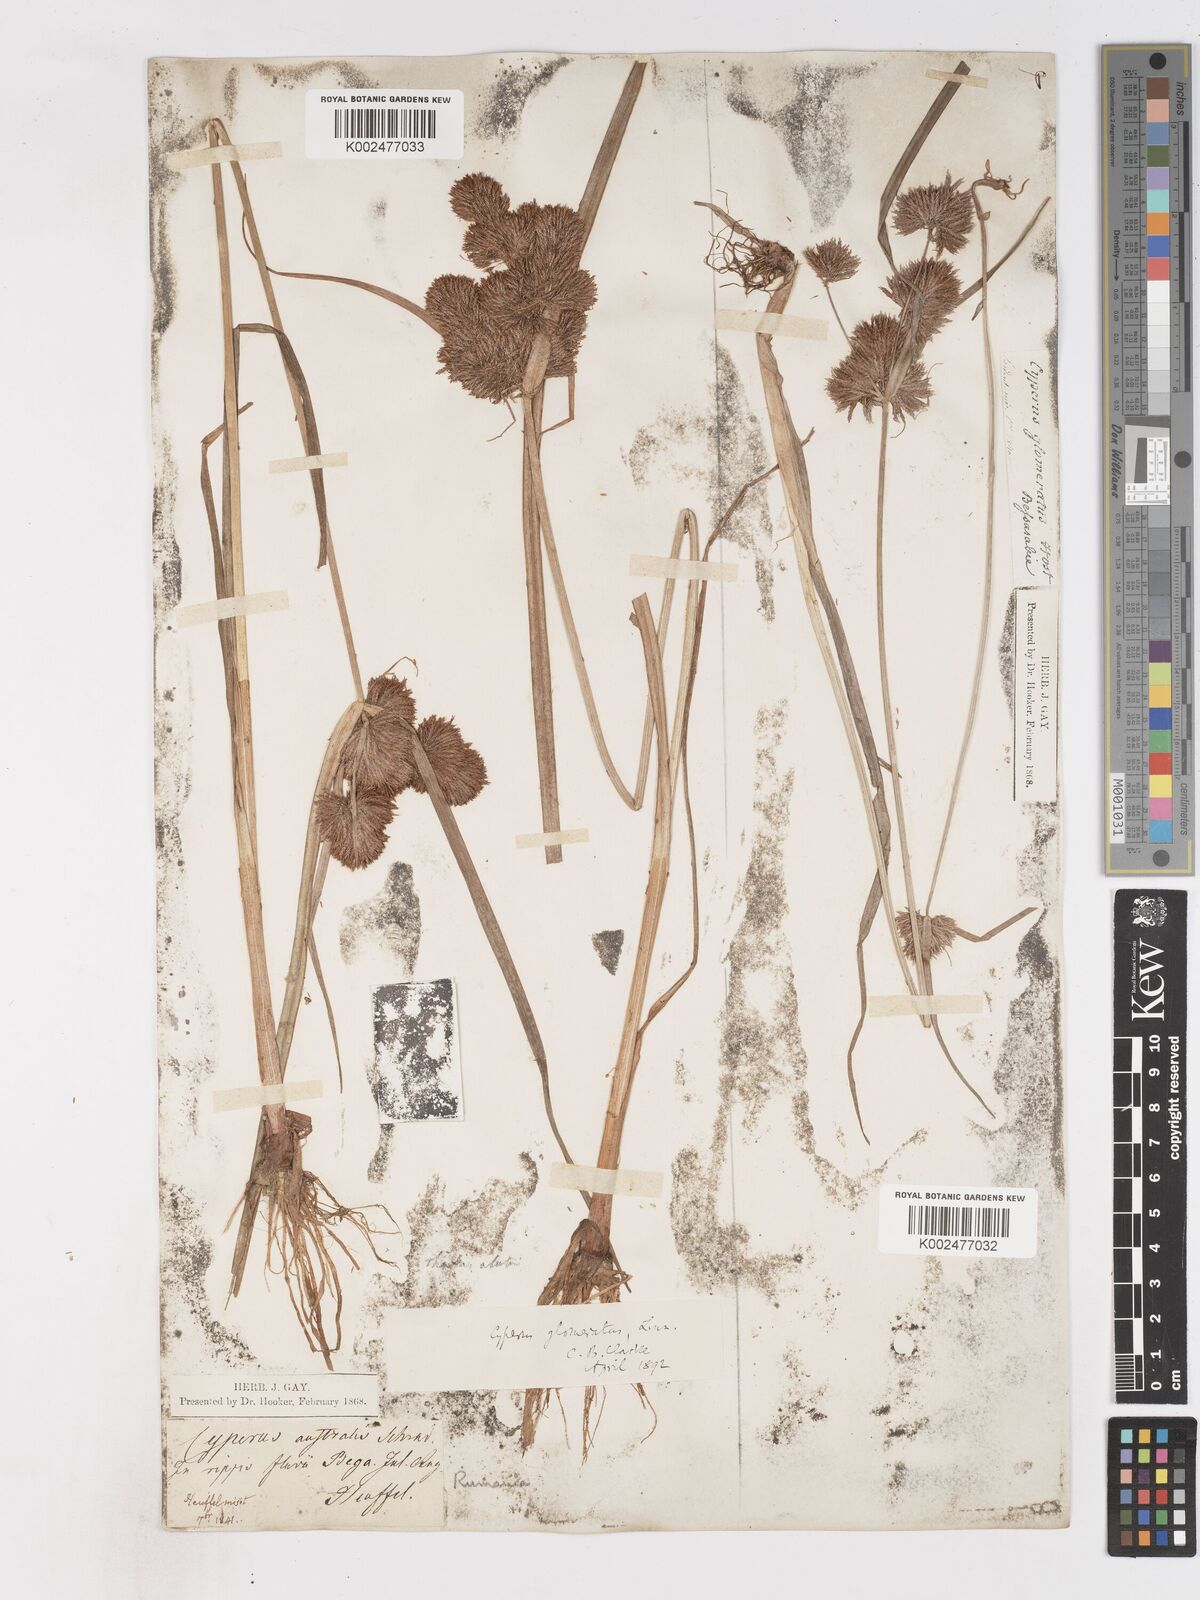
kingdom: Plantae
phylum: Tracheophyta
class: Liliopsida
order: Poales
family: Cyperaceae
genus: Cyperus
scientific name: Cyperus glomeratus
